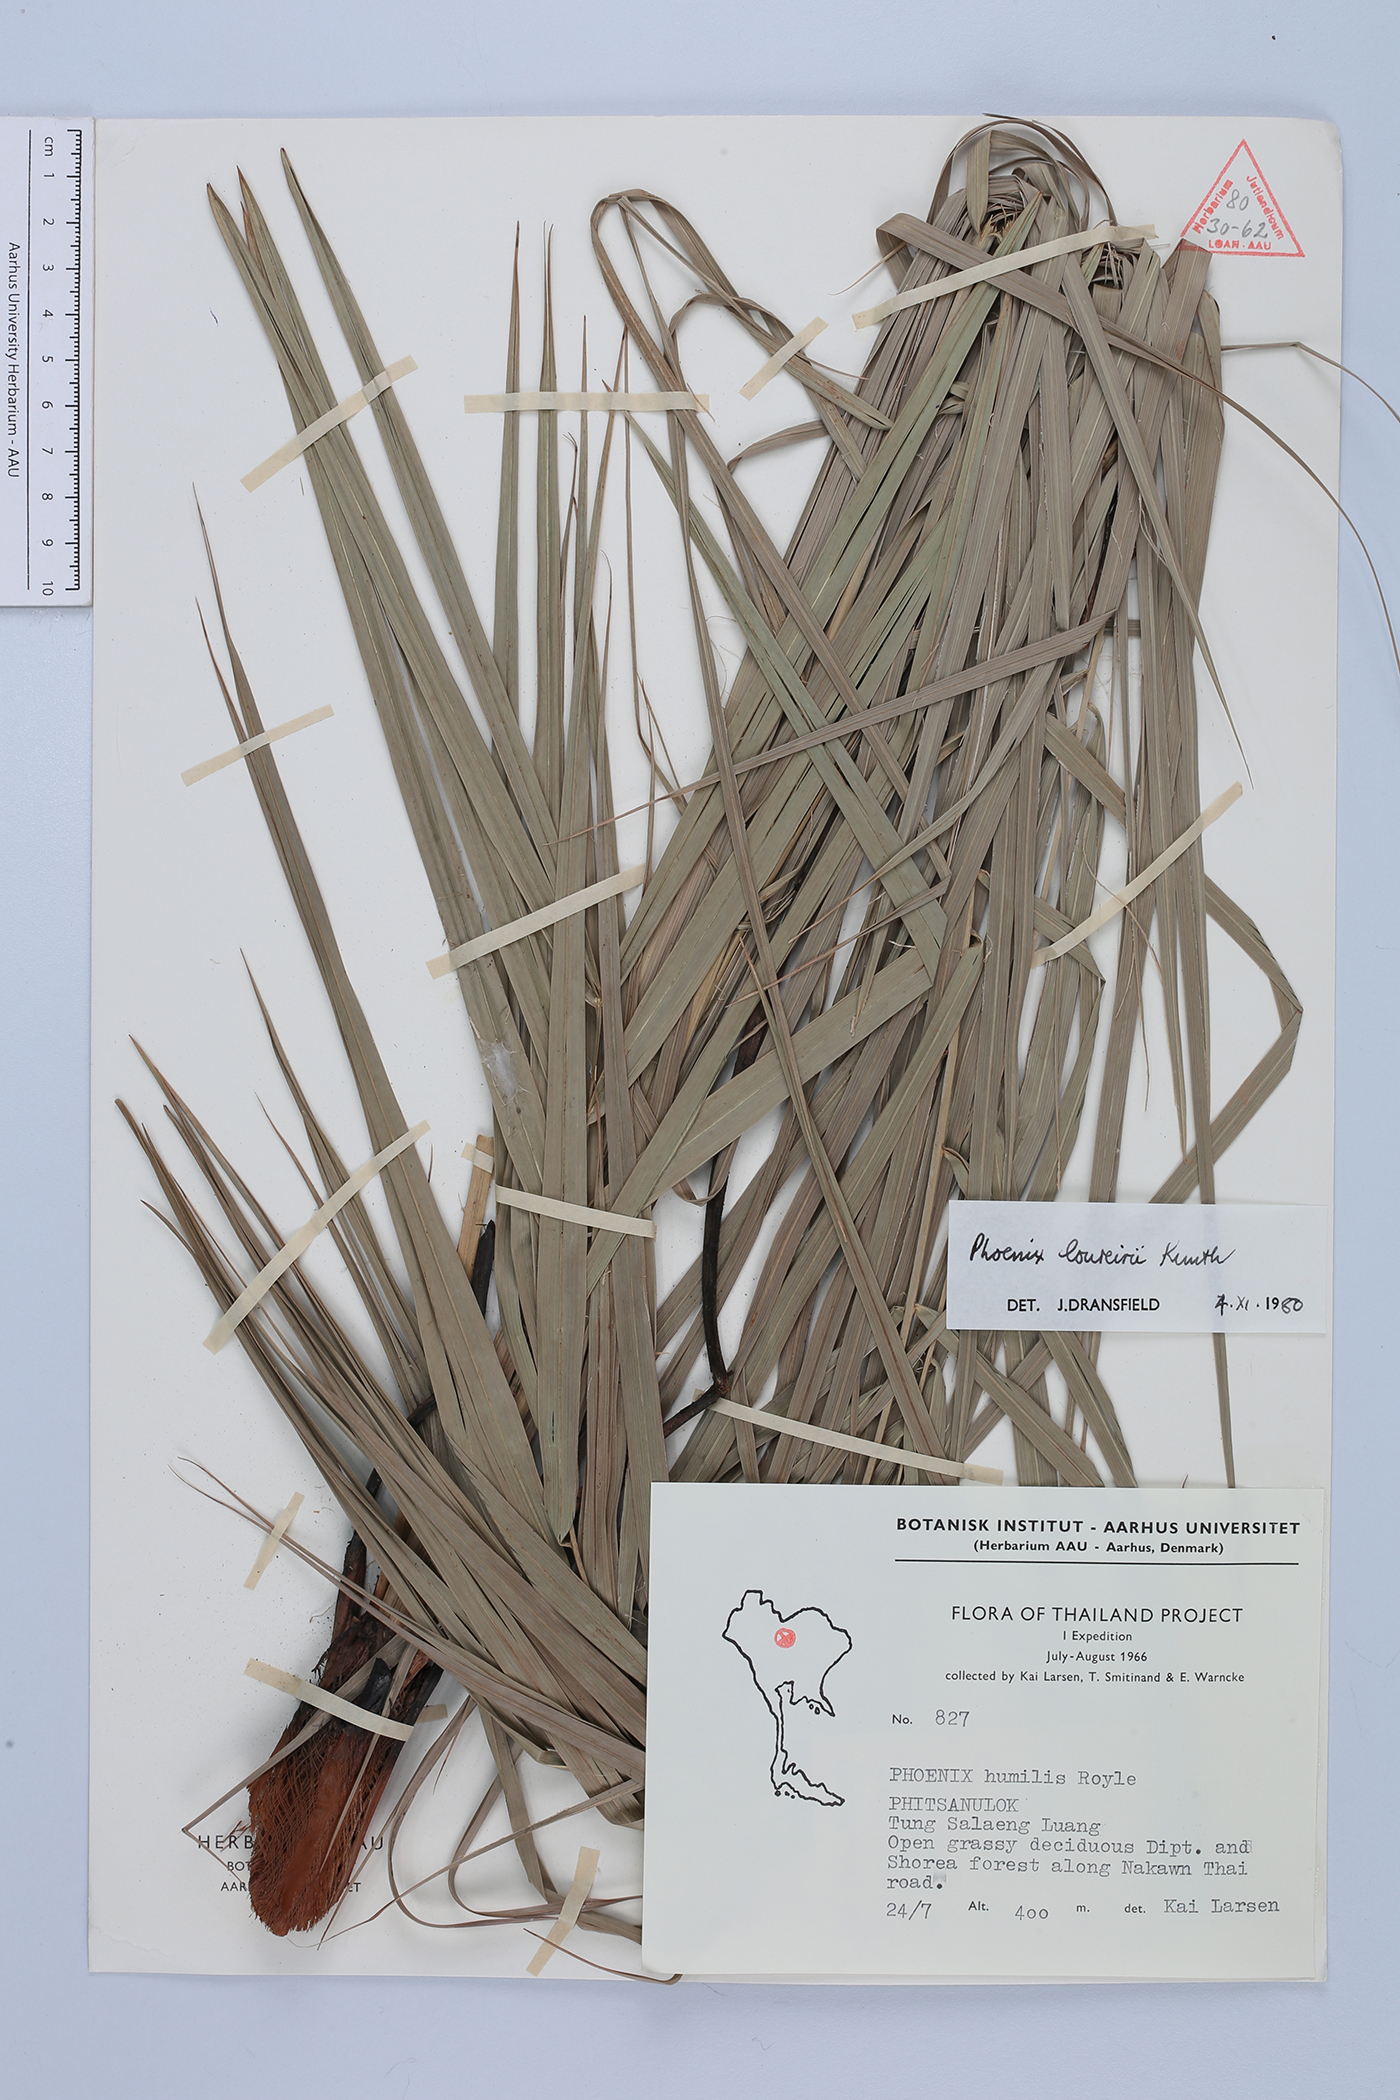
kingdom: Plantae
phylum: Tracheophyta
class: Liliopsida
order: Arecales
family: Arecaceae
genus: Phoenix
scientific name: Phoenix loureiroi
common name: Loureiro's palm
